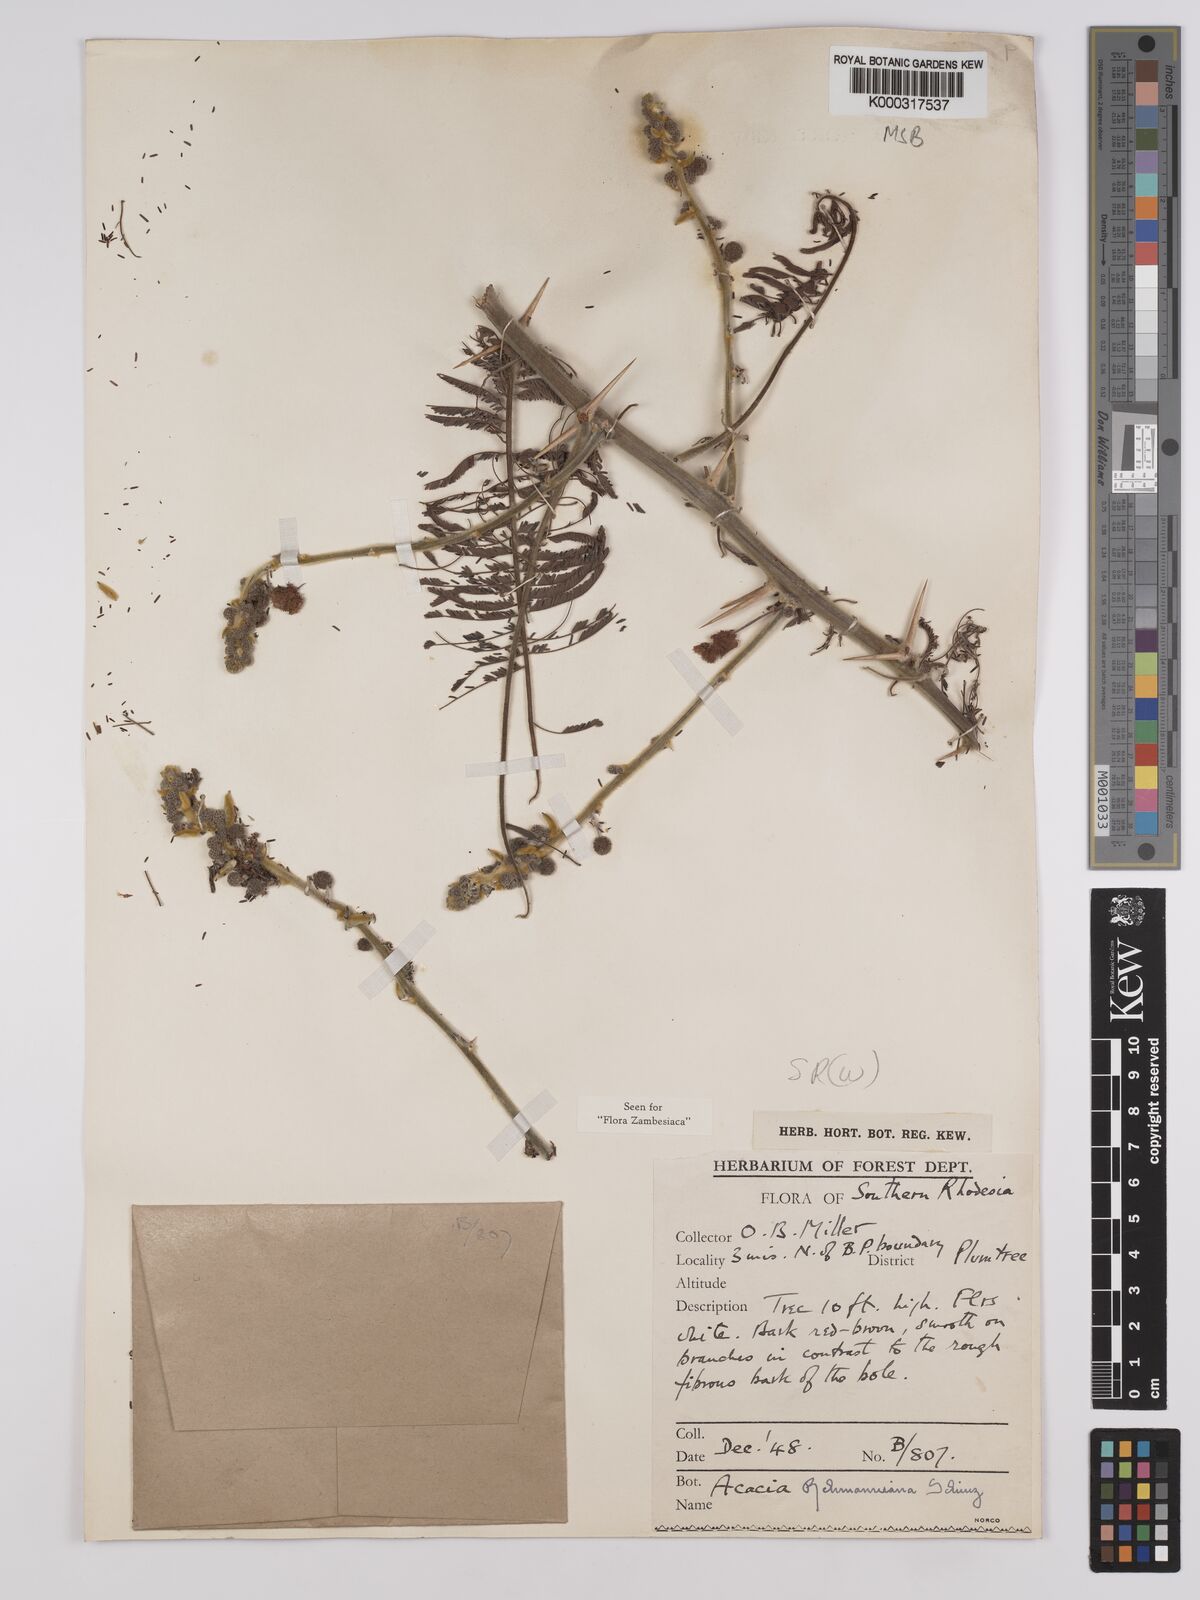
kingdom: Plantae
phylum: Tracheophyta
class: Magnoliopsida
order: Fabales
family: Fabaceae
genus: Vachellia
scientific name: Vachellia rehmanniana
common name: Silky thorn
